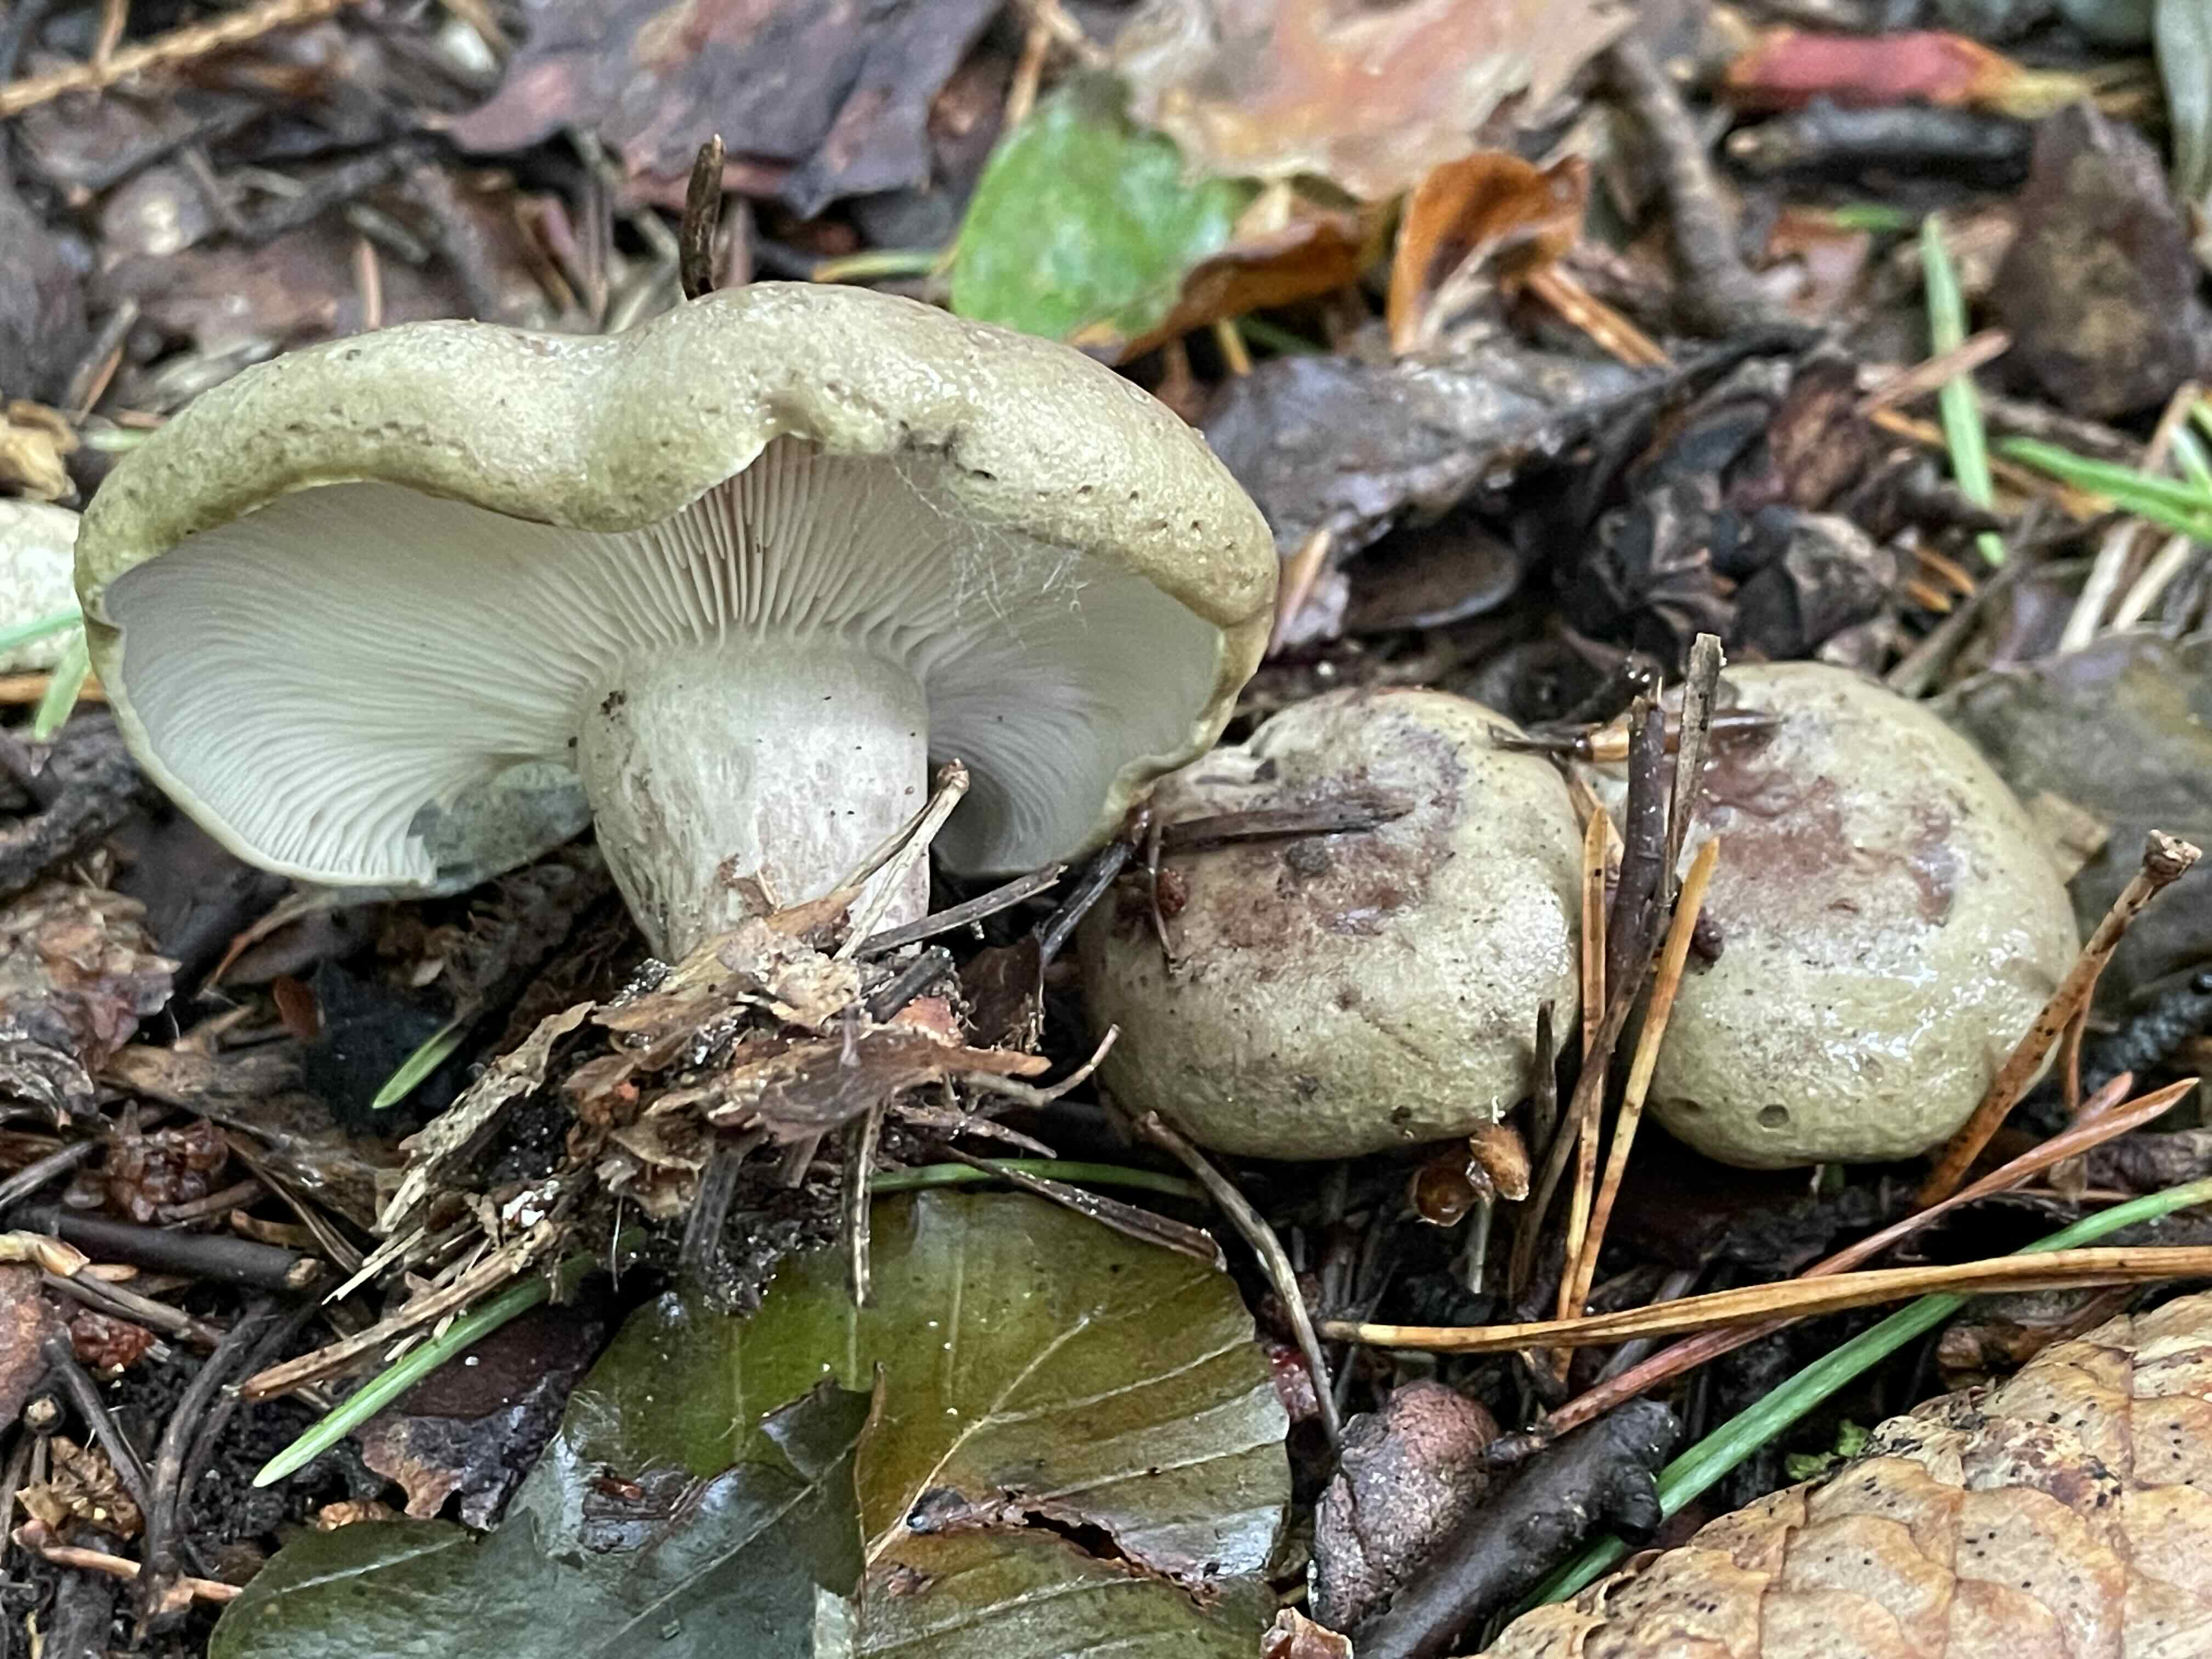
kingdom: Fungi
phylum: Basidiomycota
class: Agaricomycetes
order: Russulales
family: Russulaceae
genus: Lactarius
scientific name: Lactarius blennius
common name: dråbeplettet mælkehat
